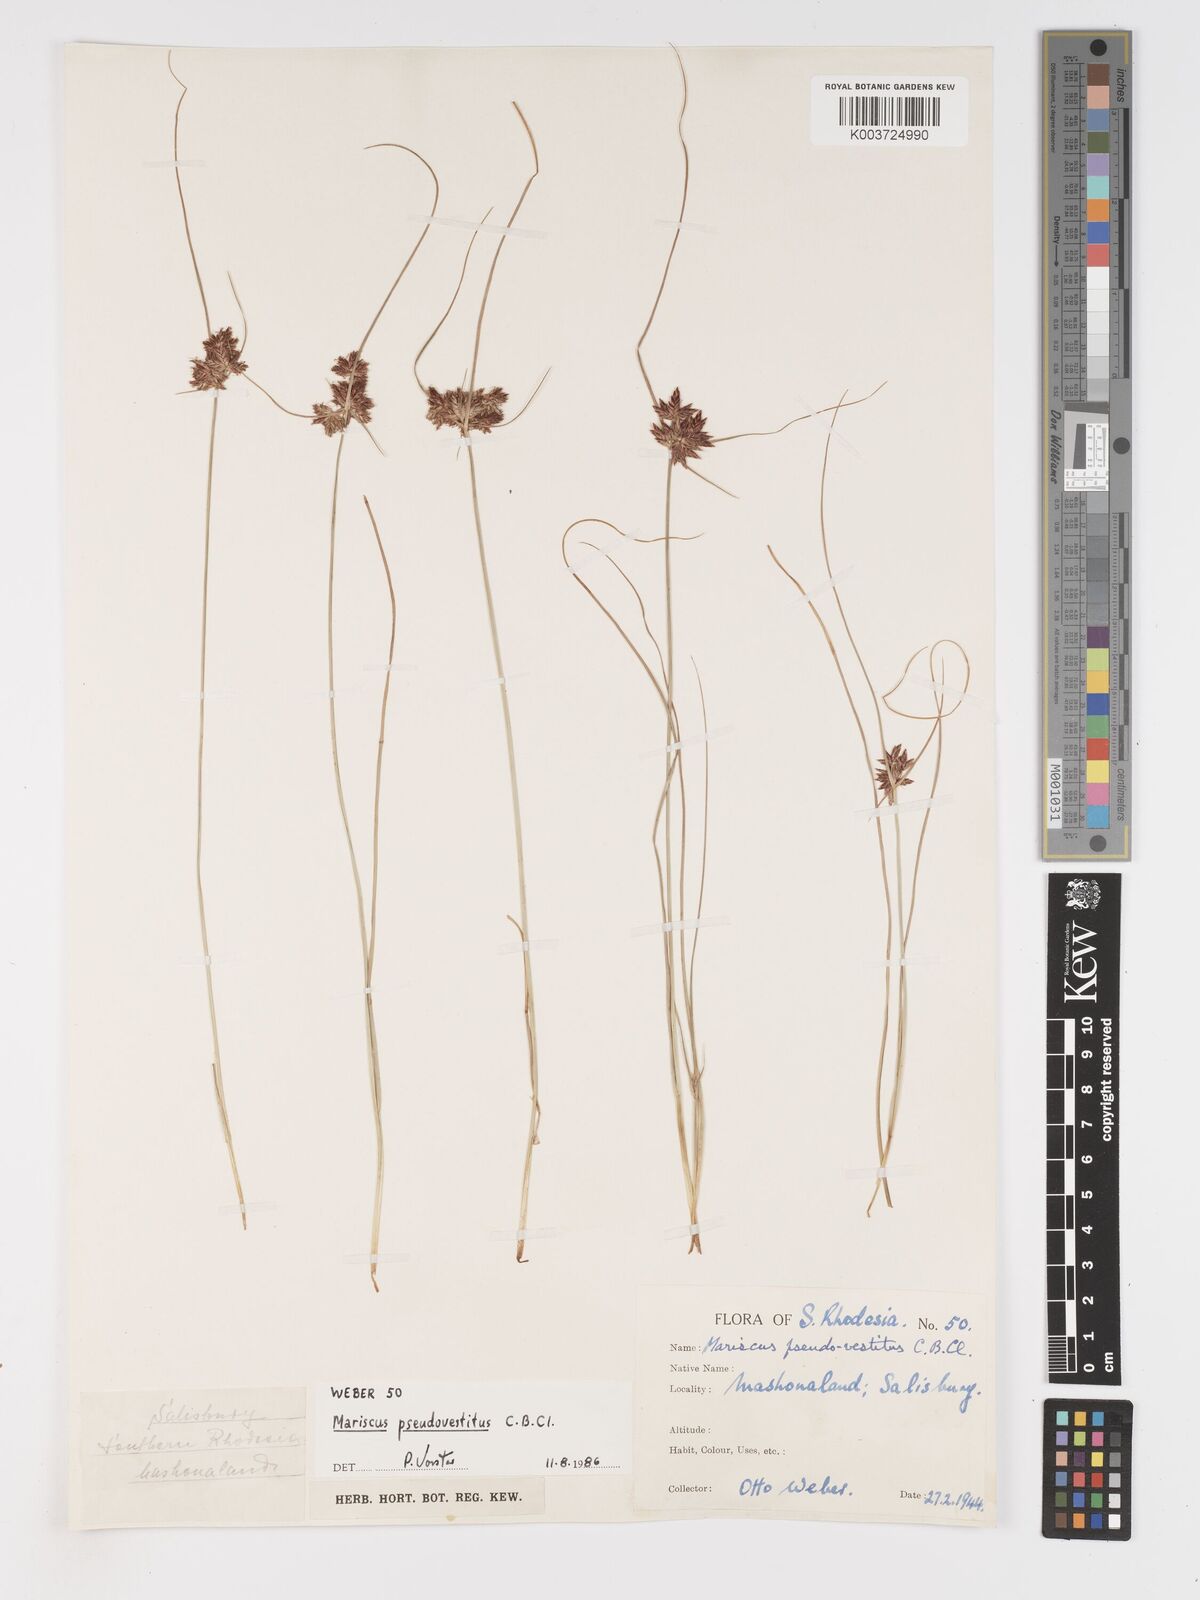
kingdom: Plantae
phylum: Tracheophyta
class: Liliopsida
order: Poales
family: Cyperaceae
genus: Cyperus
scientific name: Cyperus pseudovestitus
